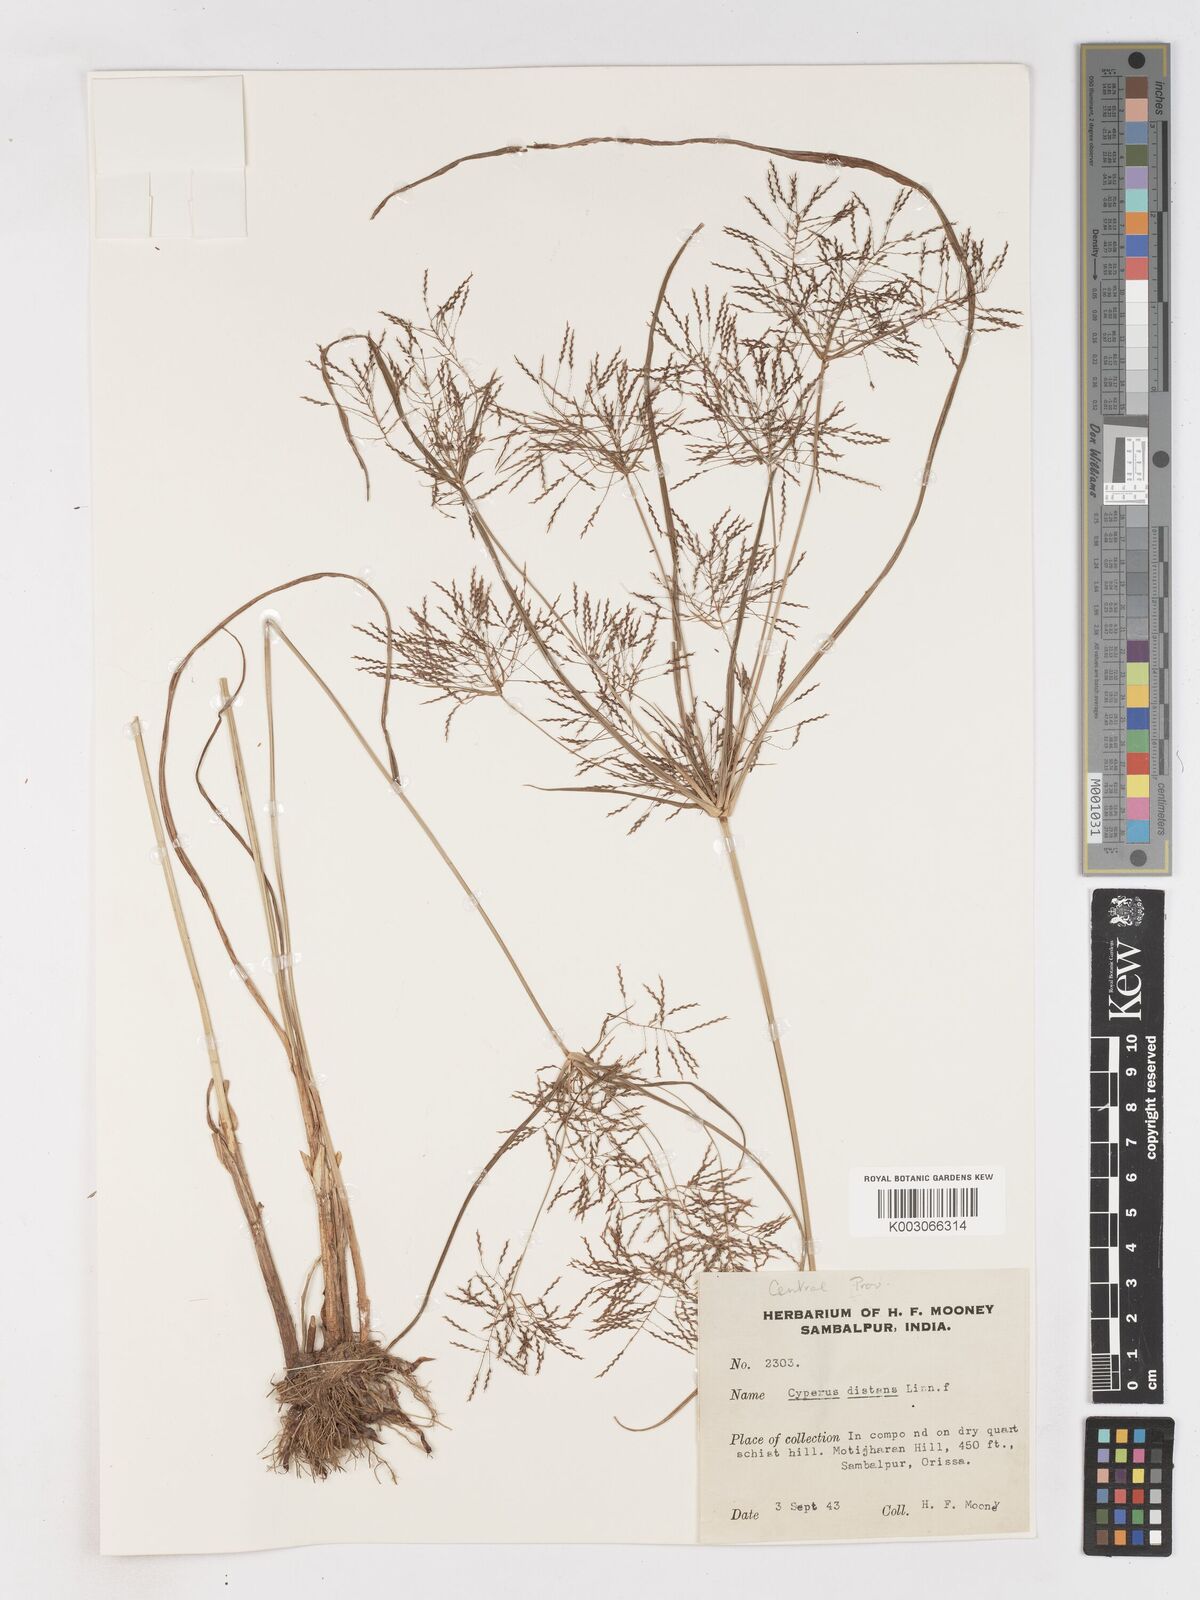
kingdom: Plantae
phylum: Tracheophyta
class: Liliopsida
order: Poales
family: Cyperaceae
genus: Cyperus
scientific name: Cyperus distans
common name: Slender cyperus
